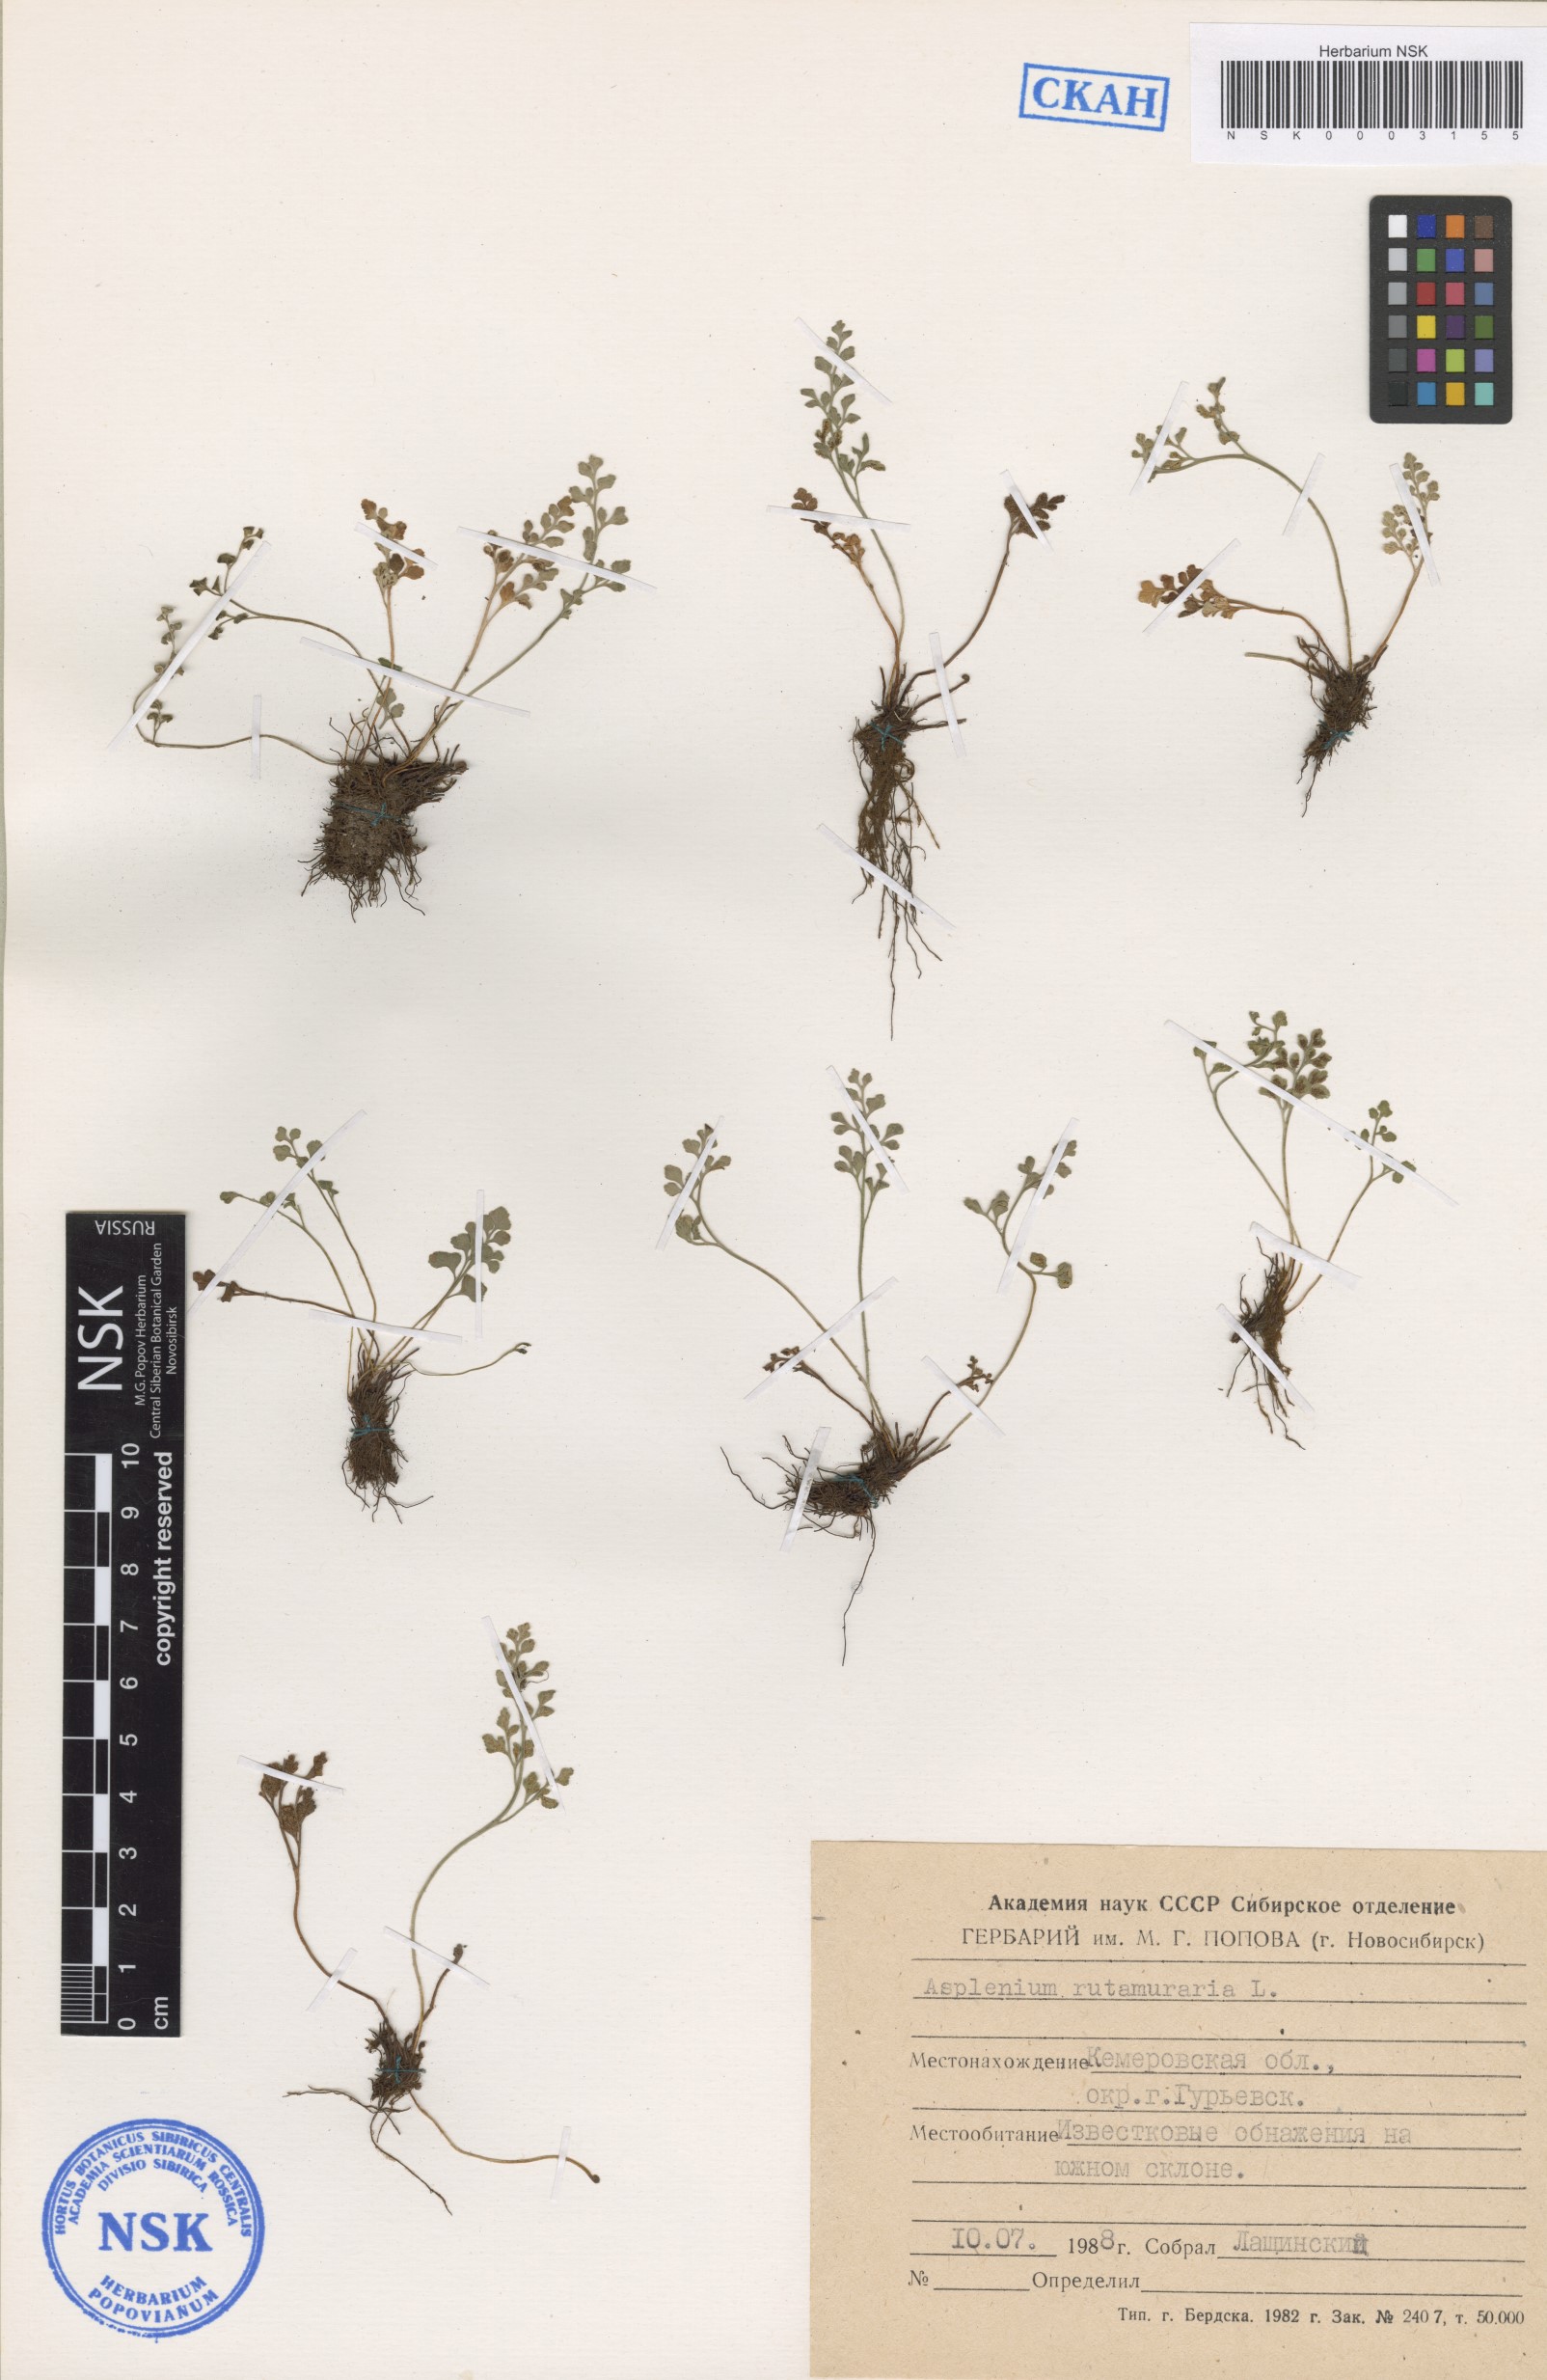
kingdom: Plantae
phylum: Tracheophyta
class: Polypodiopsida
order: Polypodiales
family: Aspleniaceae
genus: Asplenium
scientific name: Asplenium ruta-muraria
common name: Wall-rue
